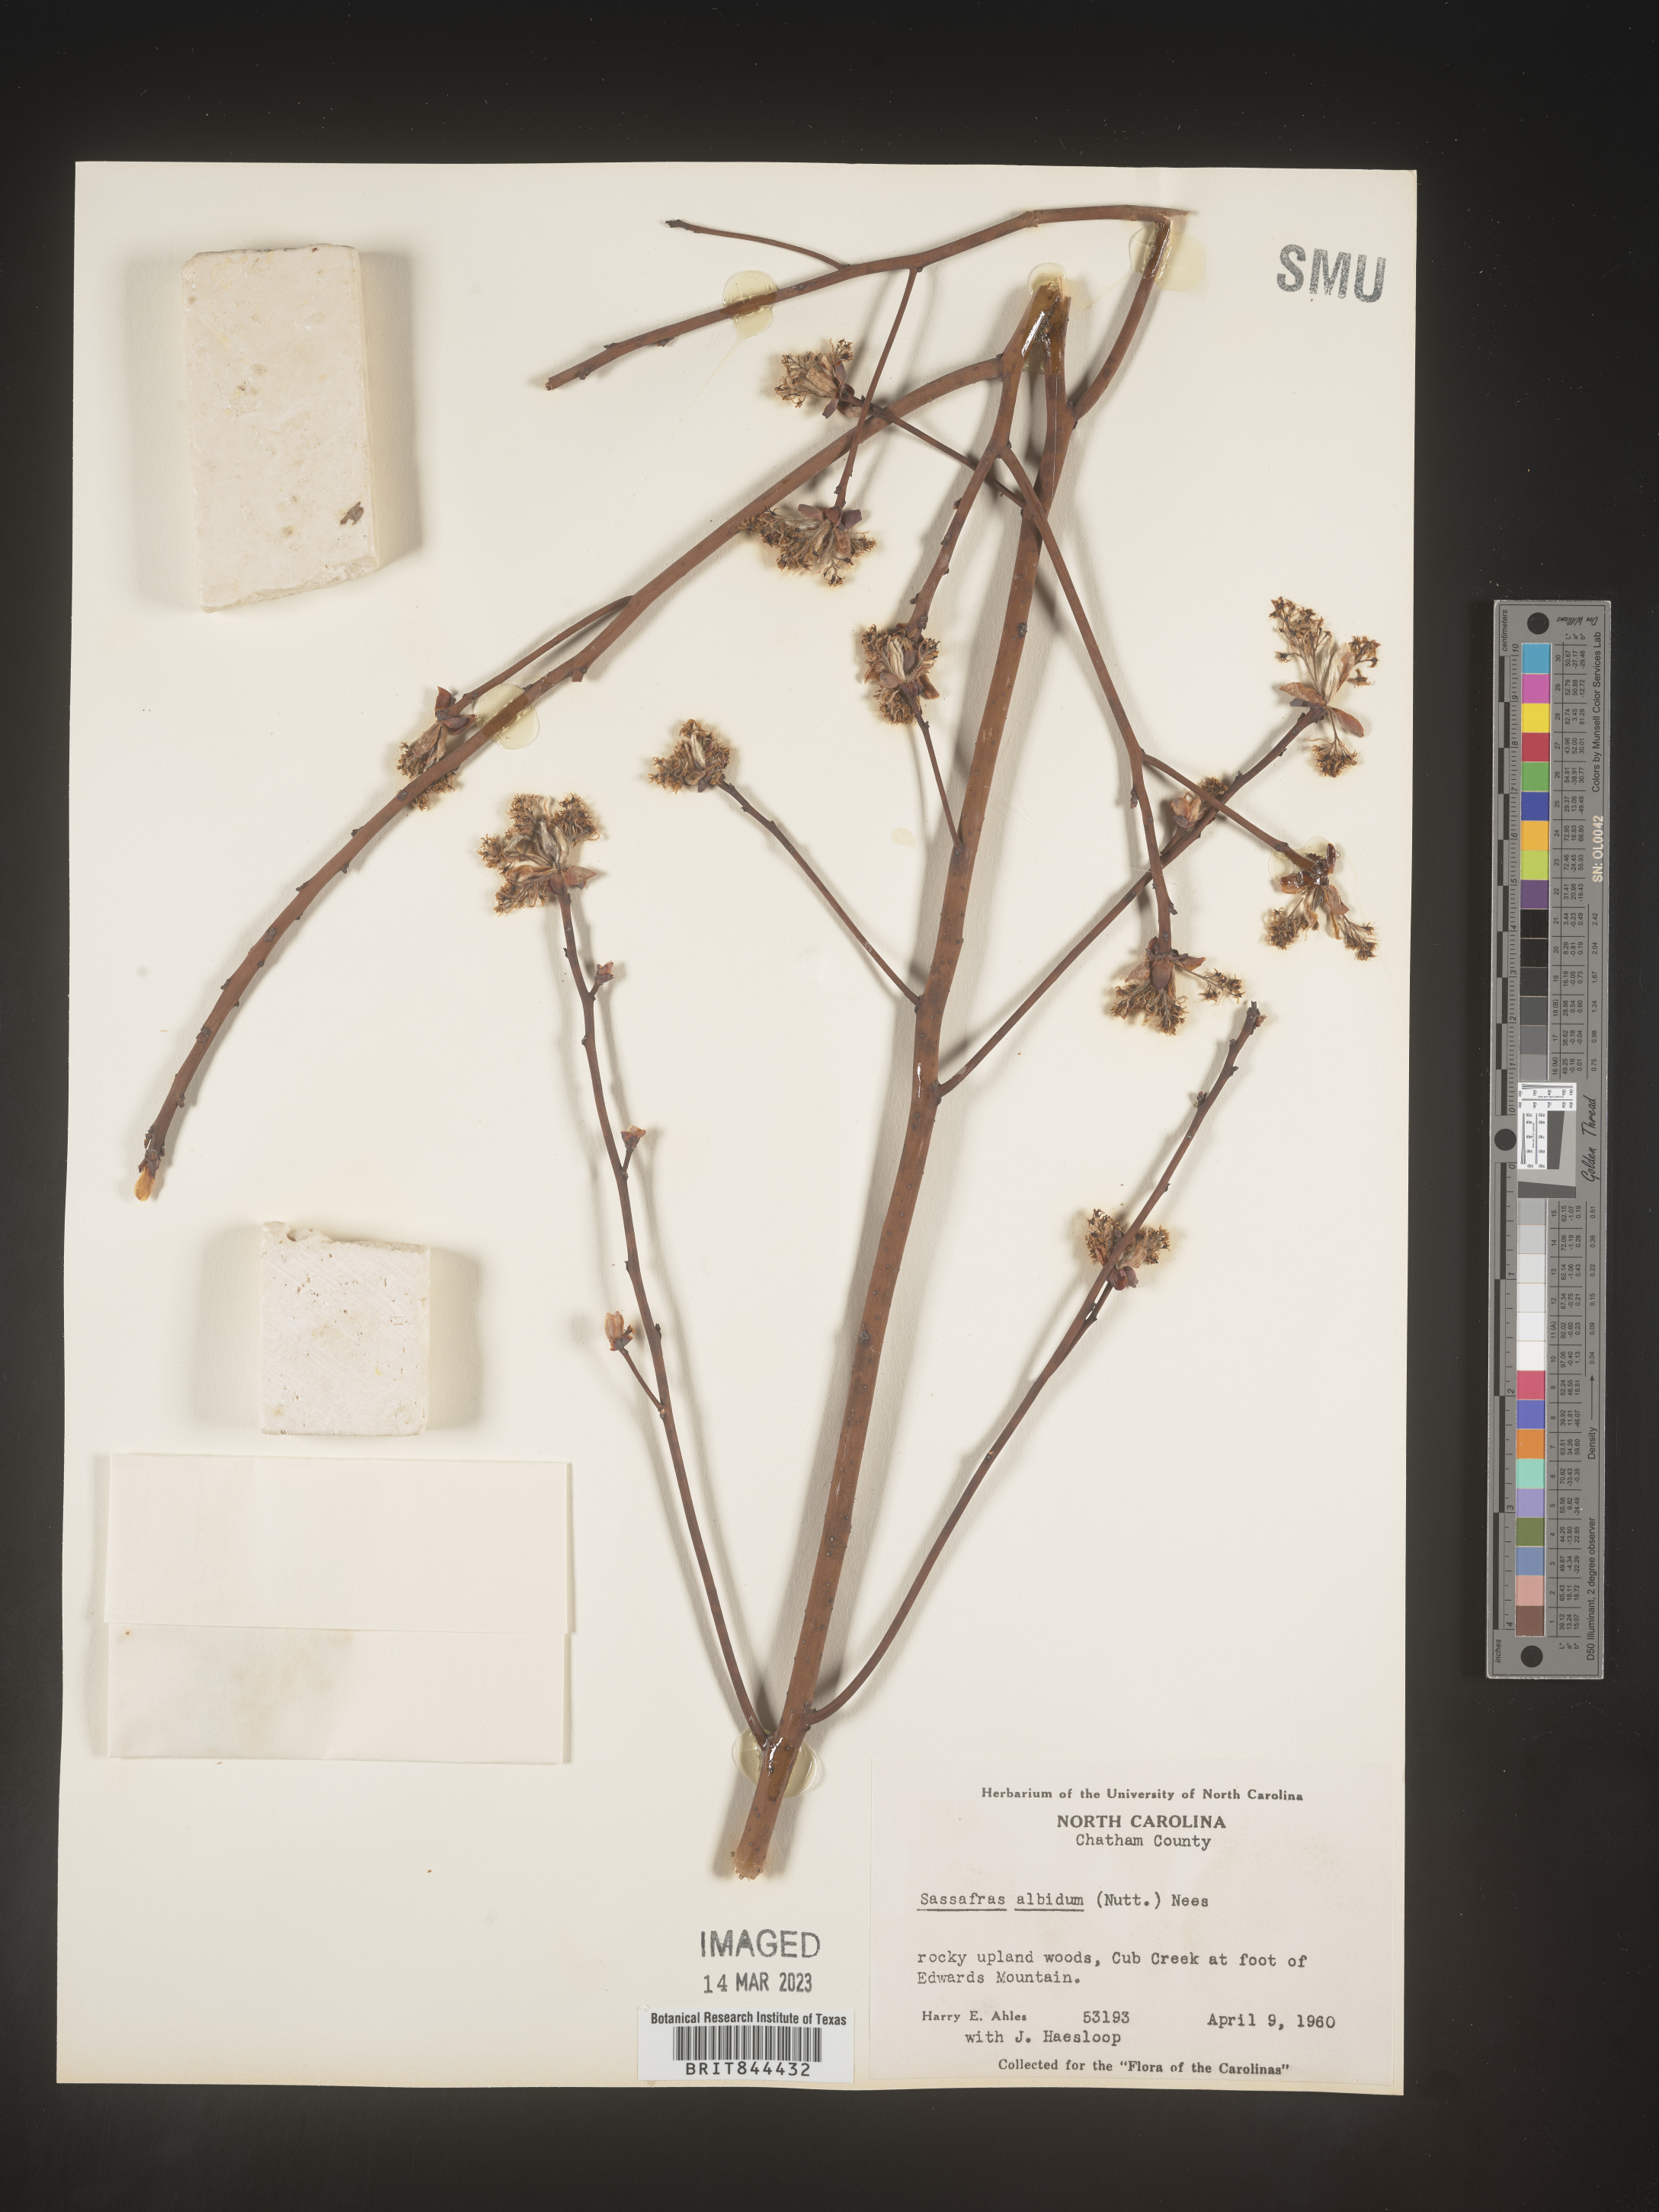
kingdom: Plantae
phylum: Tracheophyta
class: Magnoliopsida
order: Laurales
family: Lauraceae
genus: Sassafras
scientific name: Sassafras albidum
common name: Sassafras
